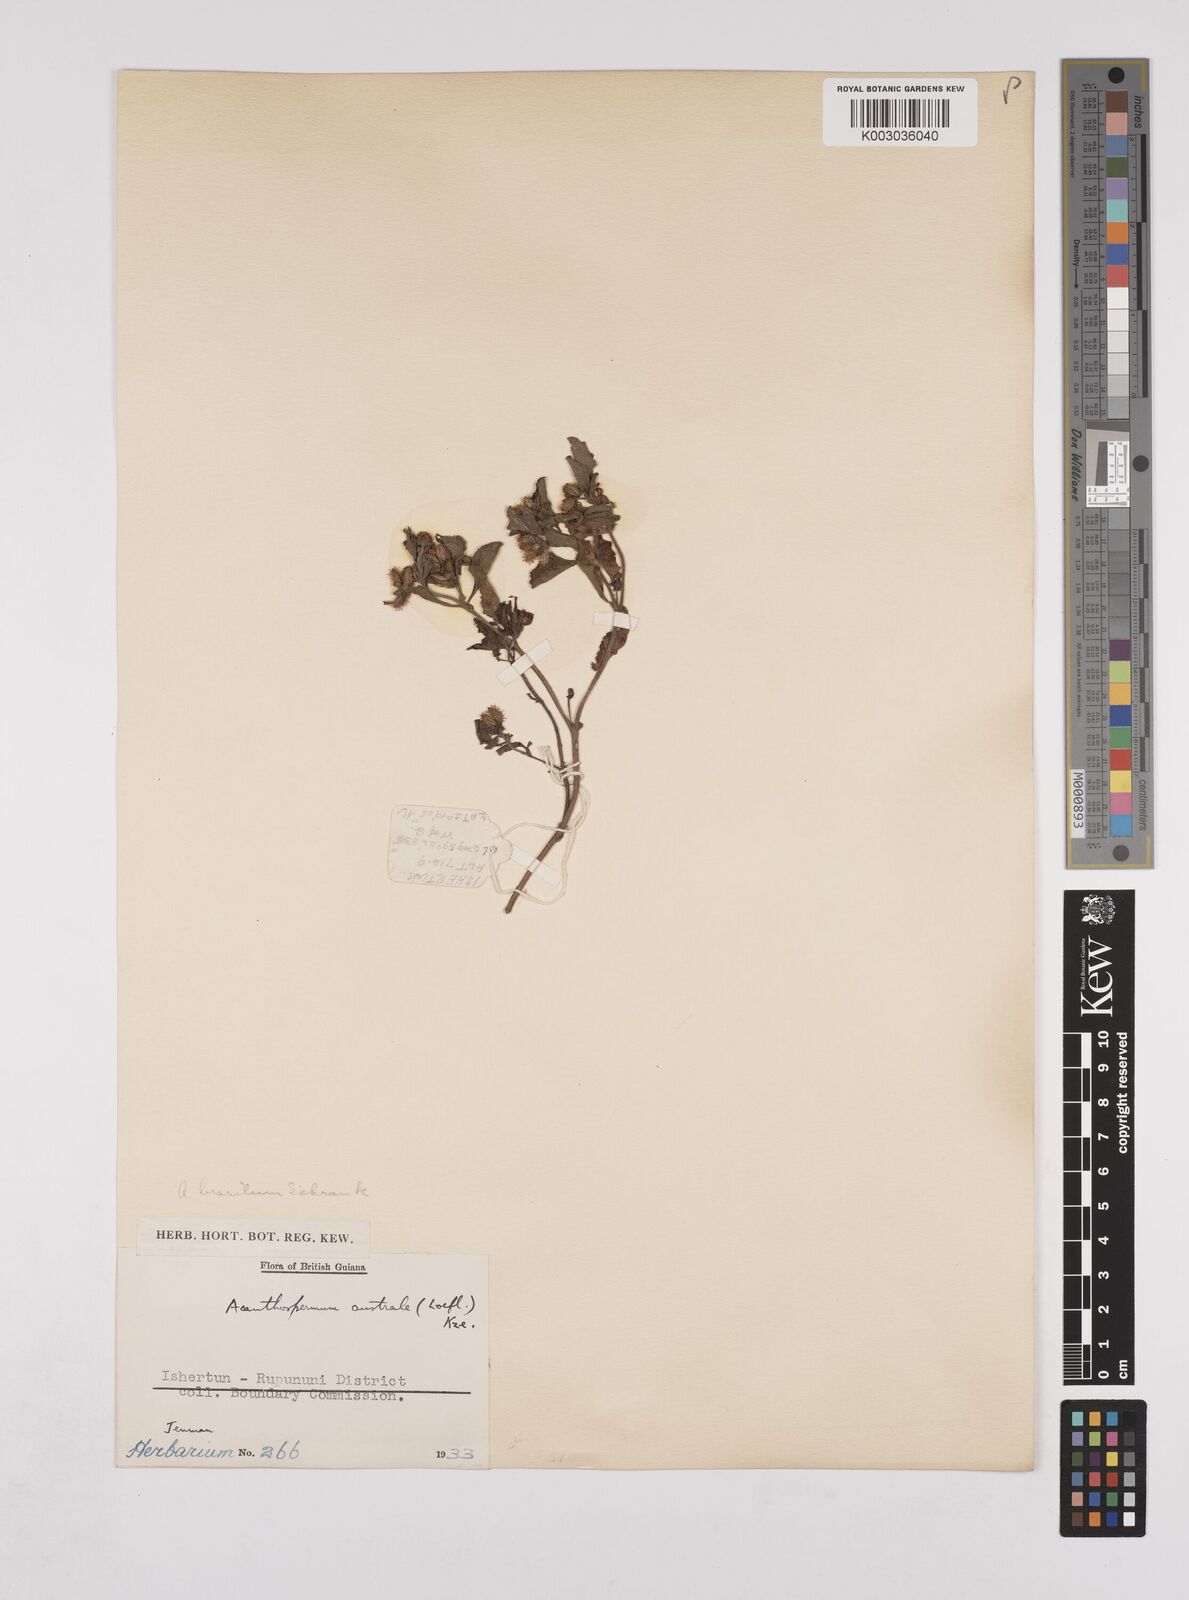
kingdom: Plantae
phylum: Tracheophyta
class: Magnoliopsida
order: Asterales
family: Asteraceae
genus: Acanthospermum
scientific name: Acanthospermum australe
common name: Paraguayan starbur
